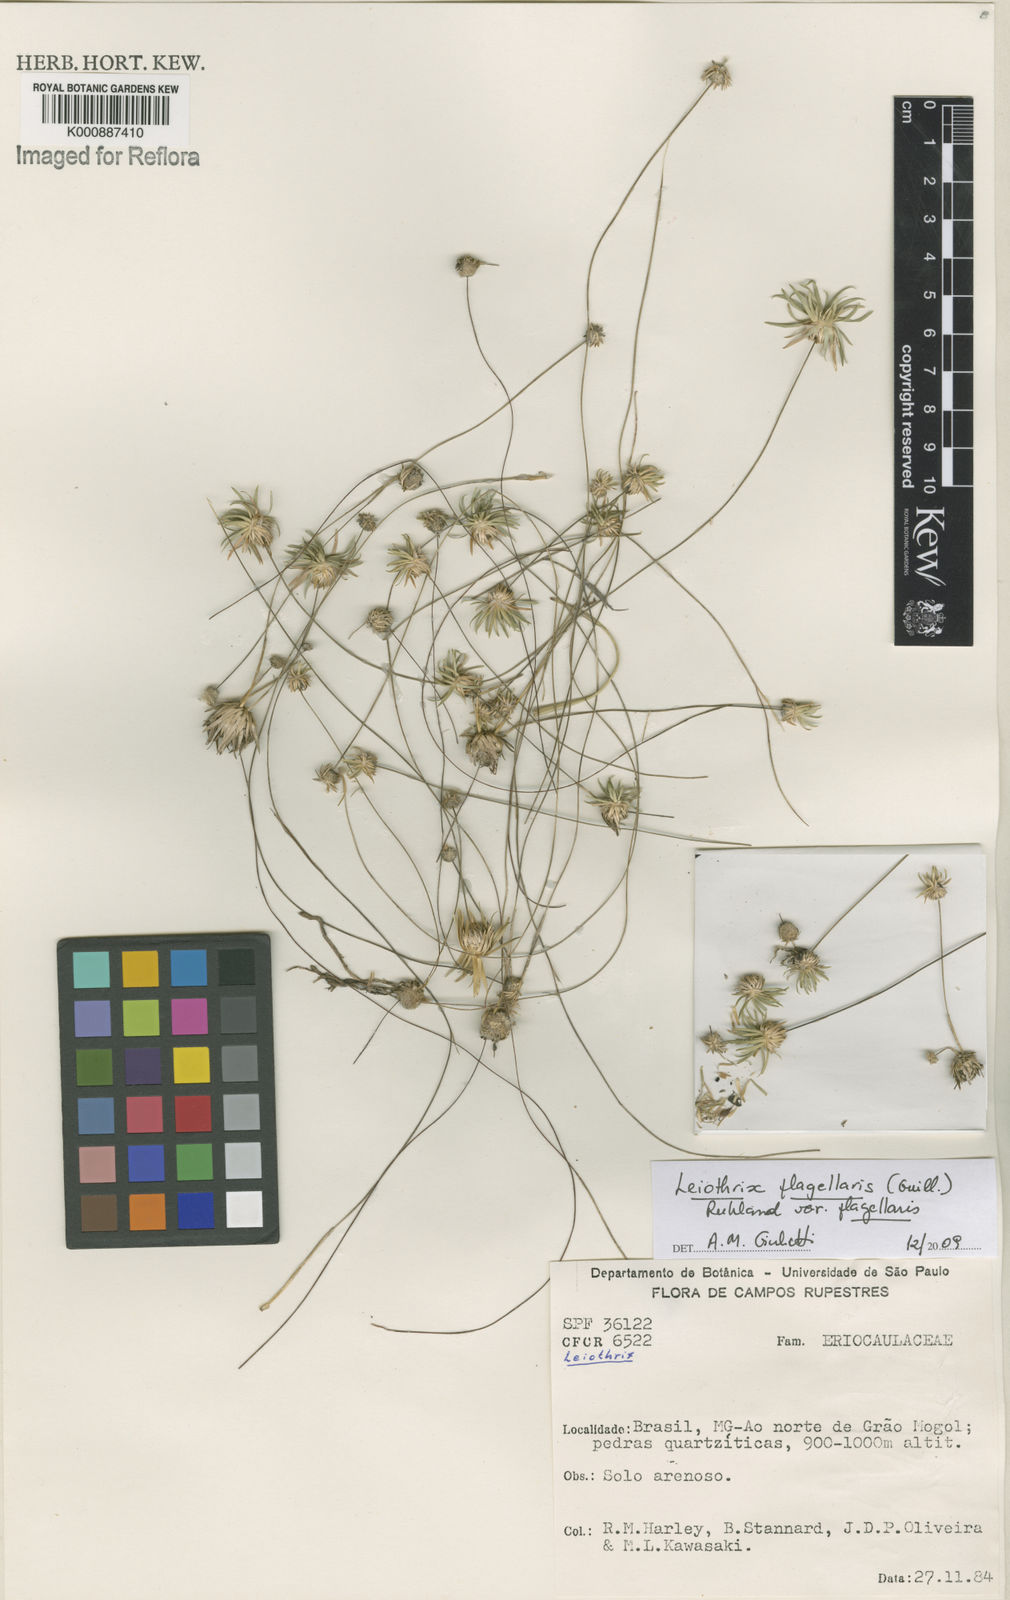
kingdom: Plantae
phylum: Tracheophyta
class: Liliopsida
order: Poales
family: Eriocaulaceae
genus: Leiothrix
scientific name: Leiothrix flagellaris
